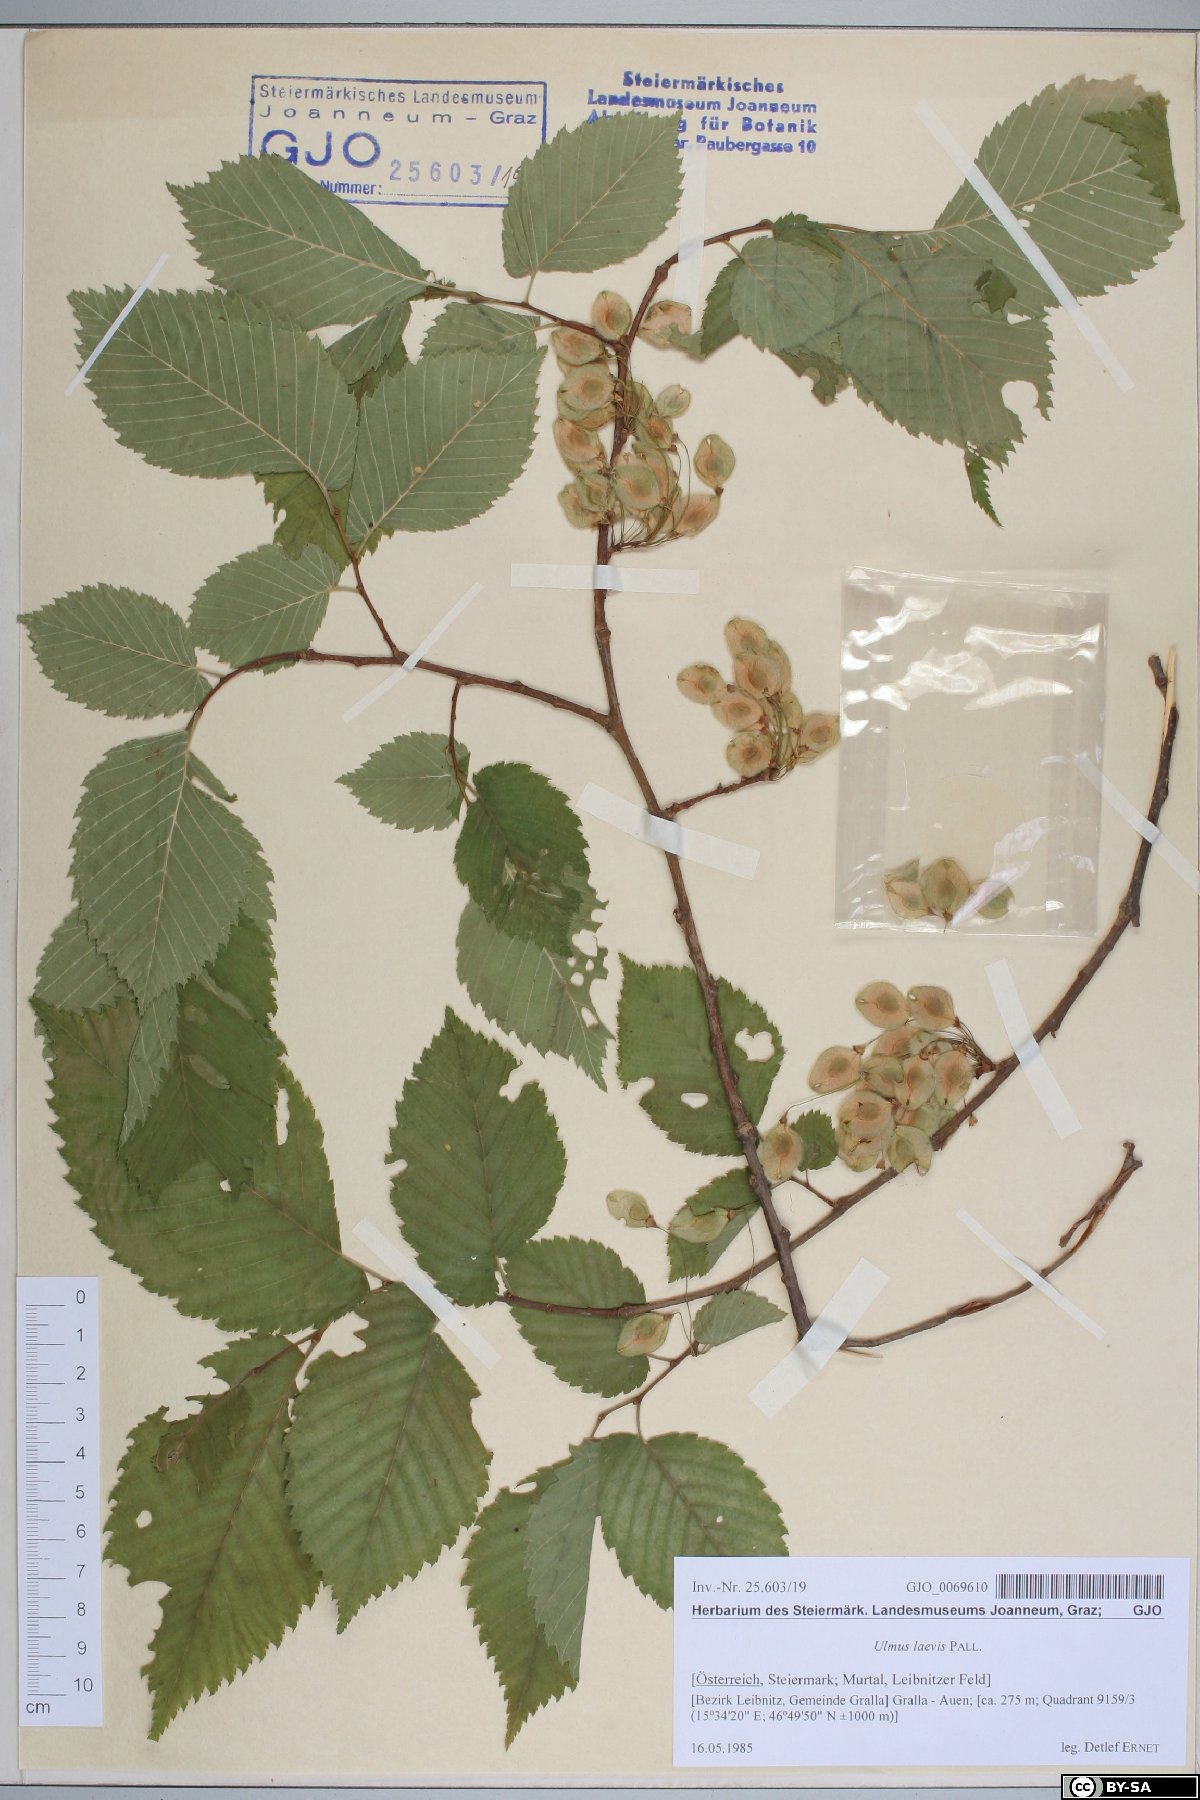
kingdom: Plantae
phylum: Tracheophyta
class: Magnoliopsida
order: Rosales
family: Ulmaceae
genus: Ulmus
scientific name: Ulmus laevis
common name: European white-elm
